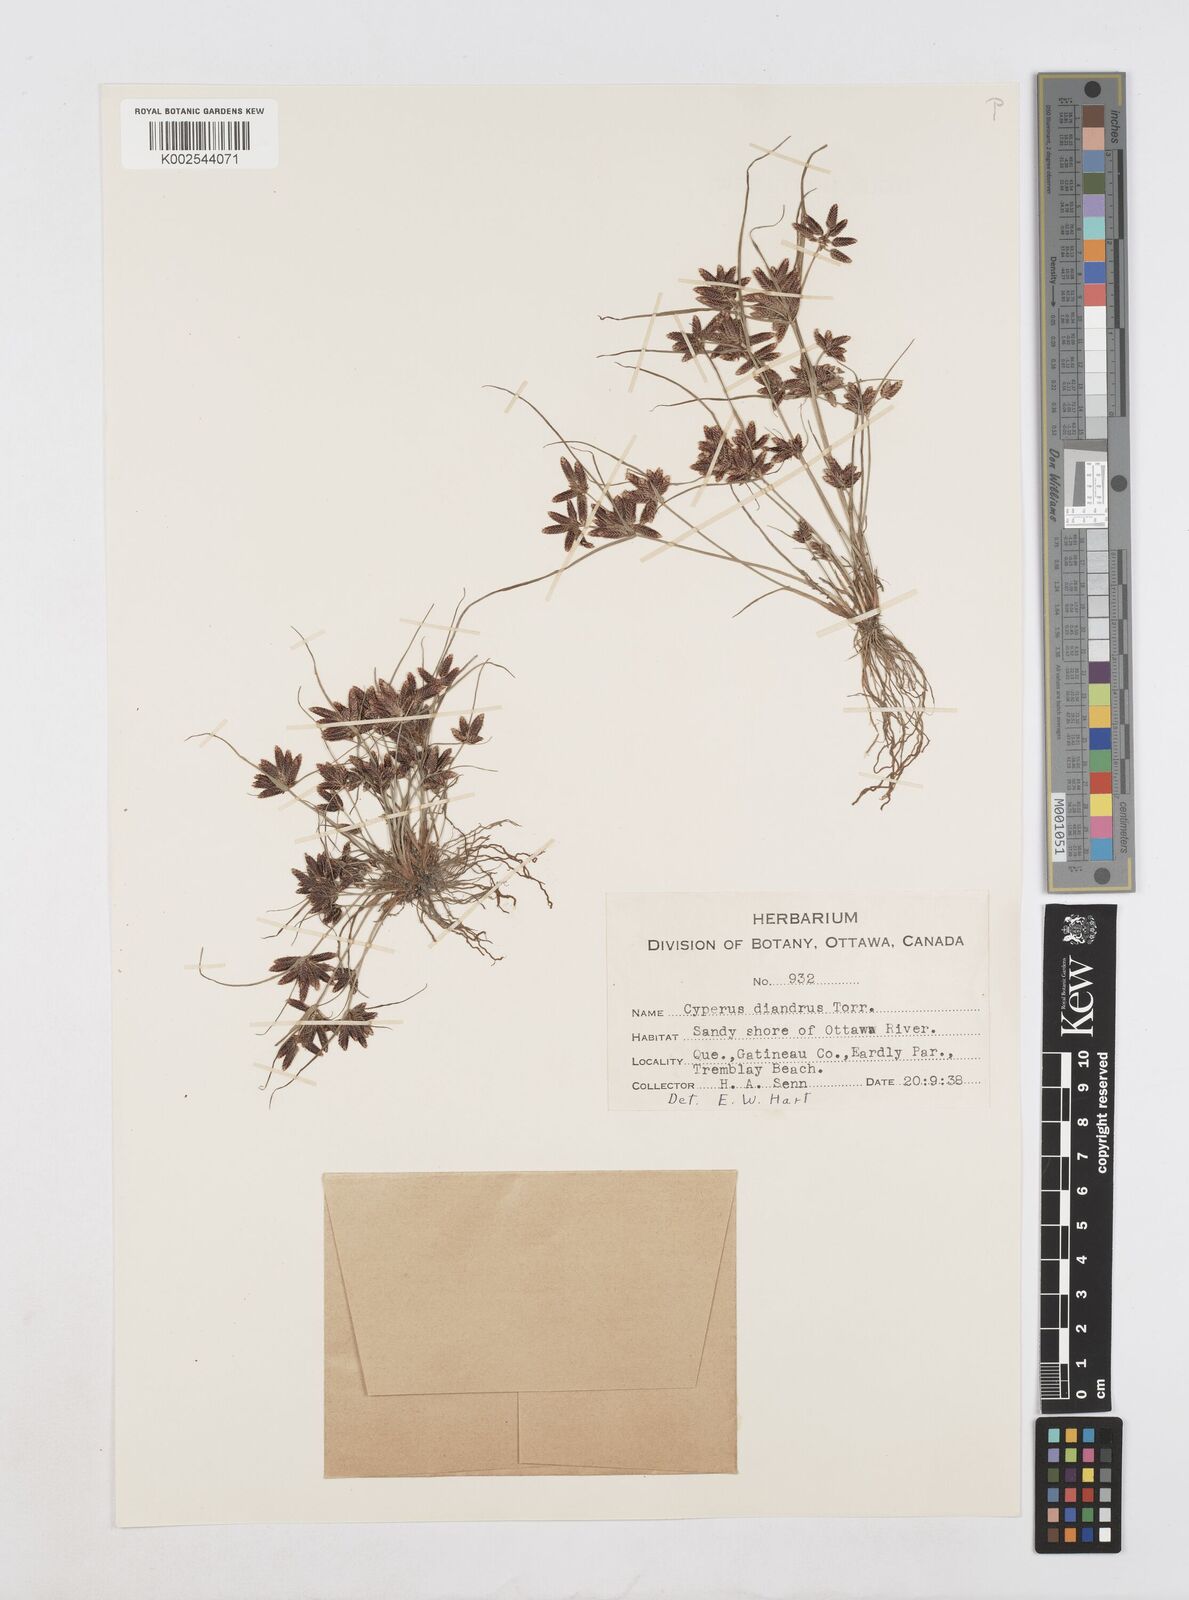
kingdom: Plantae
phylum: Tracheophyta
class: Liliopsida
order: Poales
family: Cyperaceae
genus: Cyperus
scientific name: Cyperus diandrus
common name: Low cyperus
